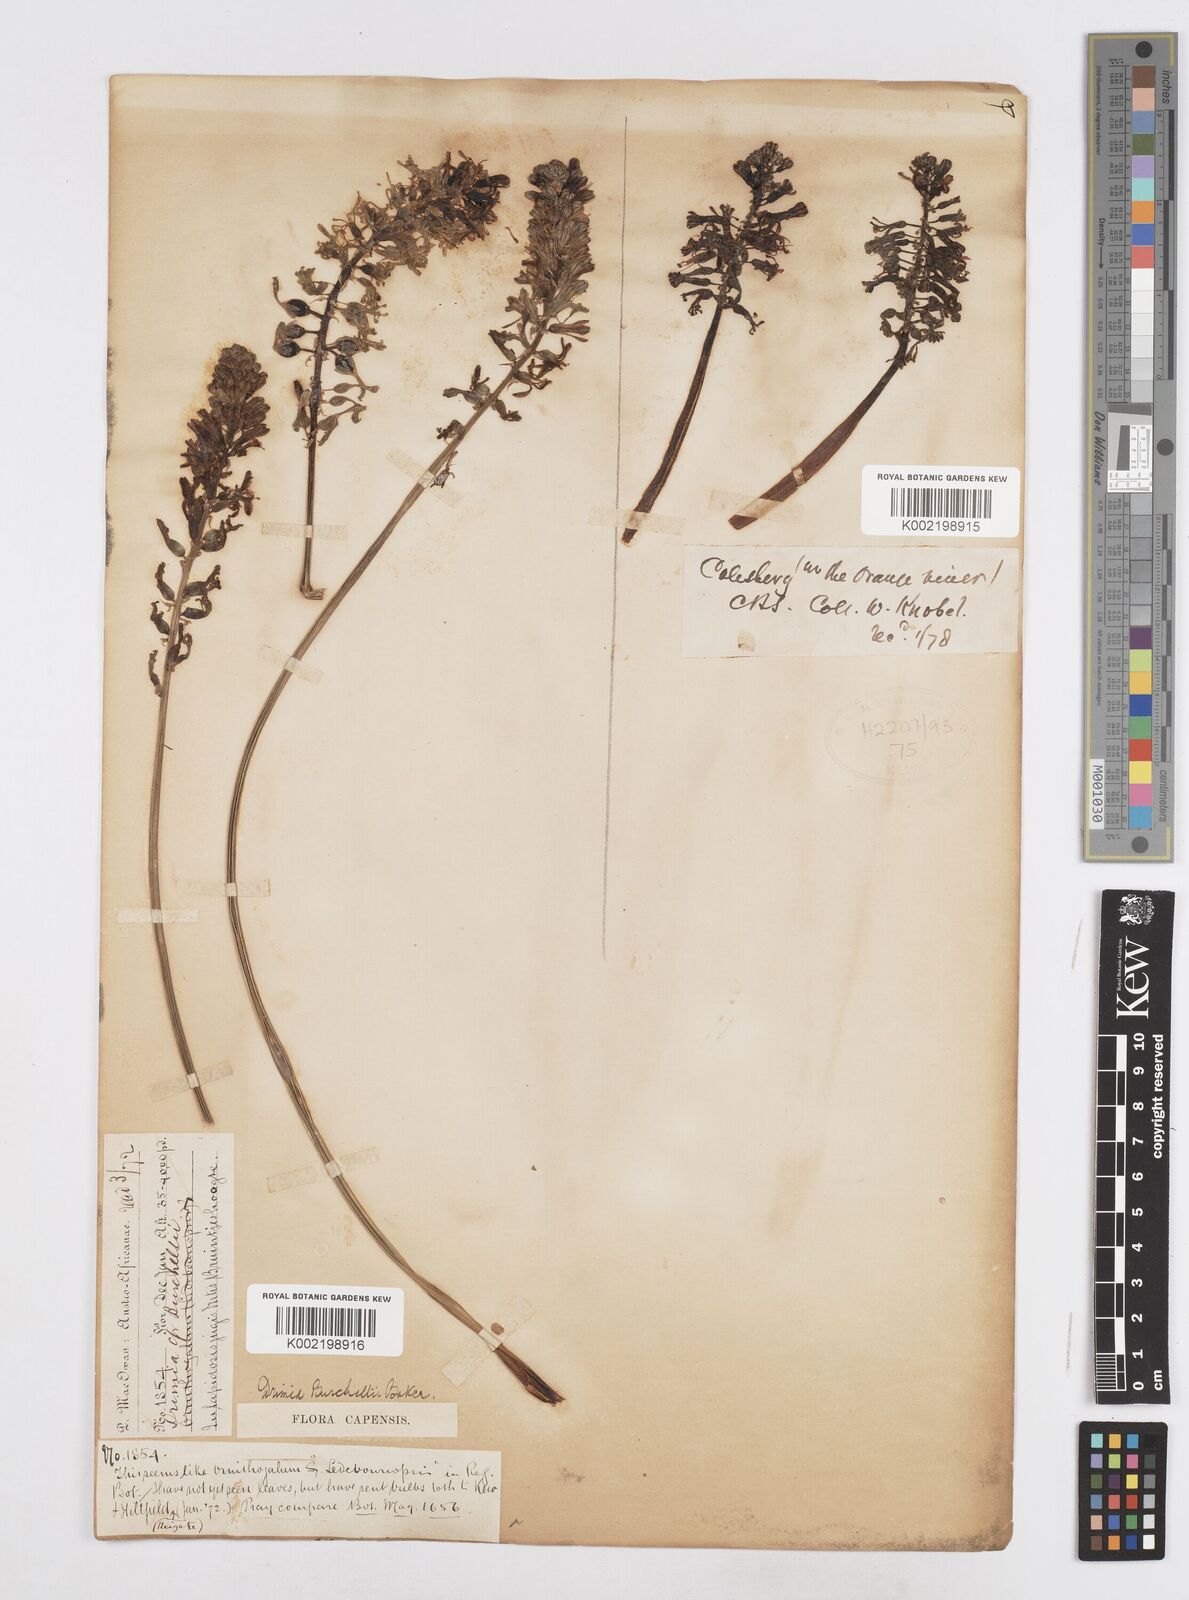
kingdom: Plantae
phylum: Tracheophyta
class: Liliopsida
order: Asparagales
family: Asparagaceae
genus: Drimia
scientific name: Drimia elata
